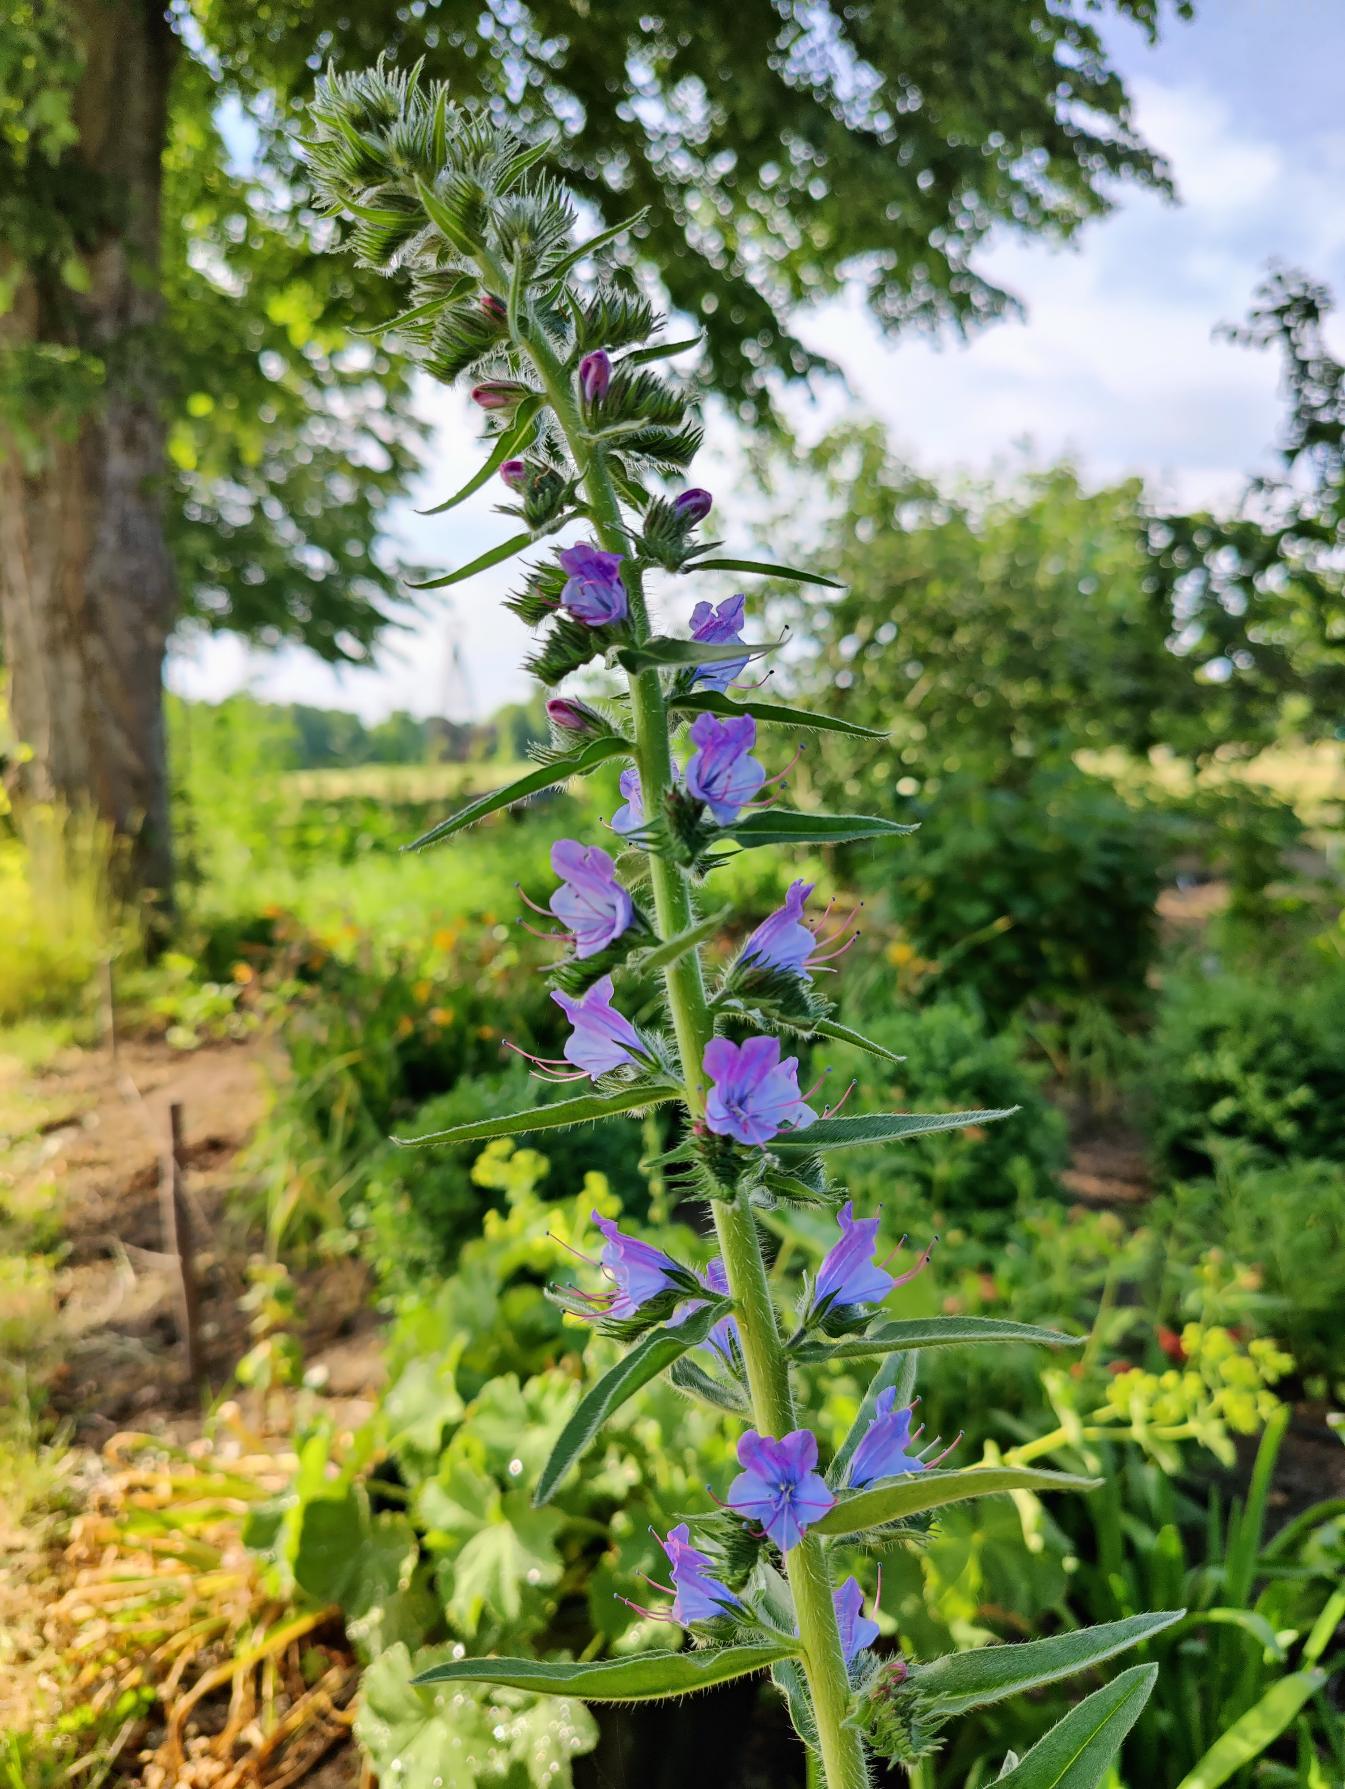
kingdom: Plantae
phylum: Tracheophyta
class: Magnoliopsida
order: Boraginales
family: Boraginaceae
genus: Echium
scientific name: Echium vulgare
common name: Slangehoved
